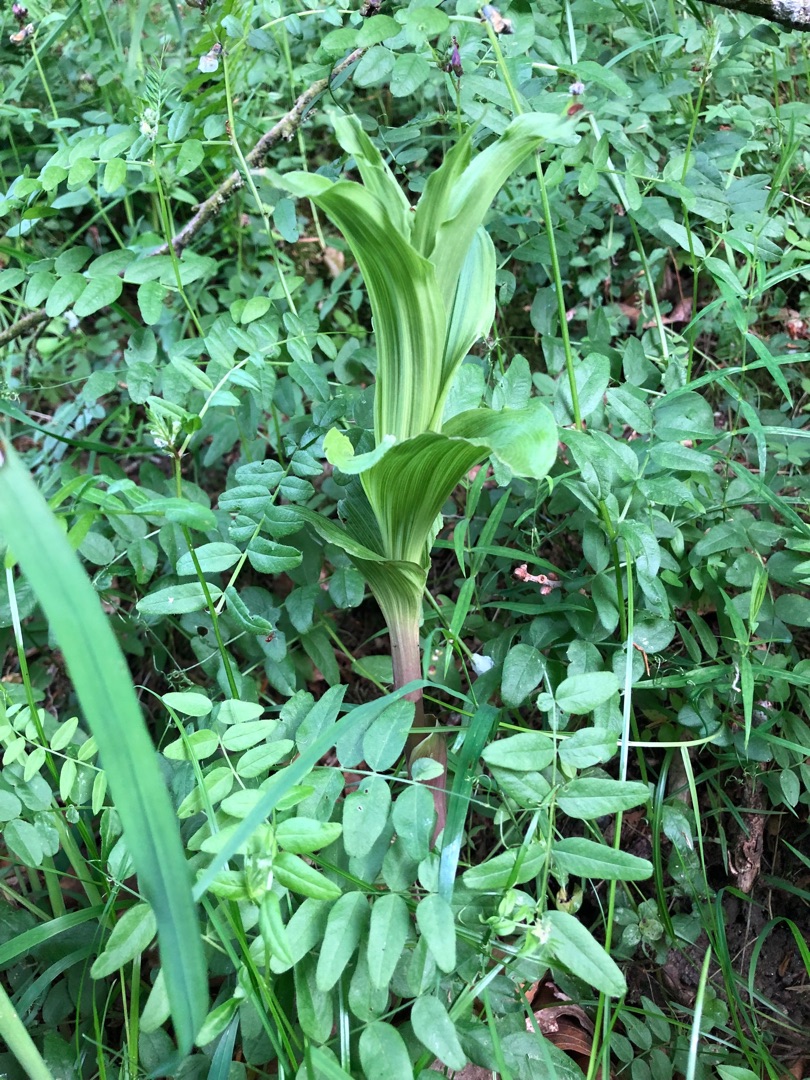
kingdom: Plantae
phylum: Tracheophyta
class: Liliopsida
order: Asparagales
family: Orchidaceae
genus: Epipactis
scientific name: Epipactis helleborine
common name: Skov-hullæbe
